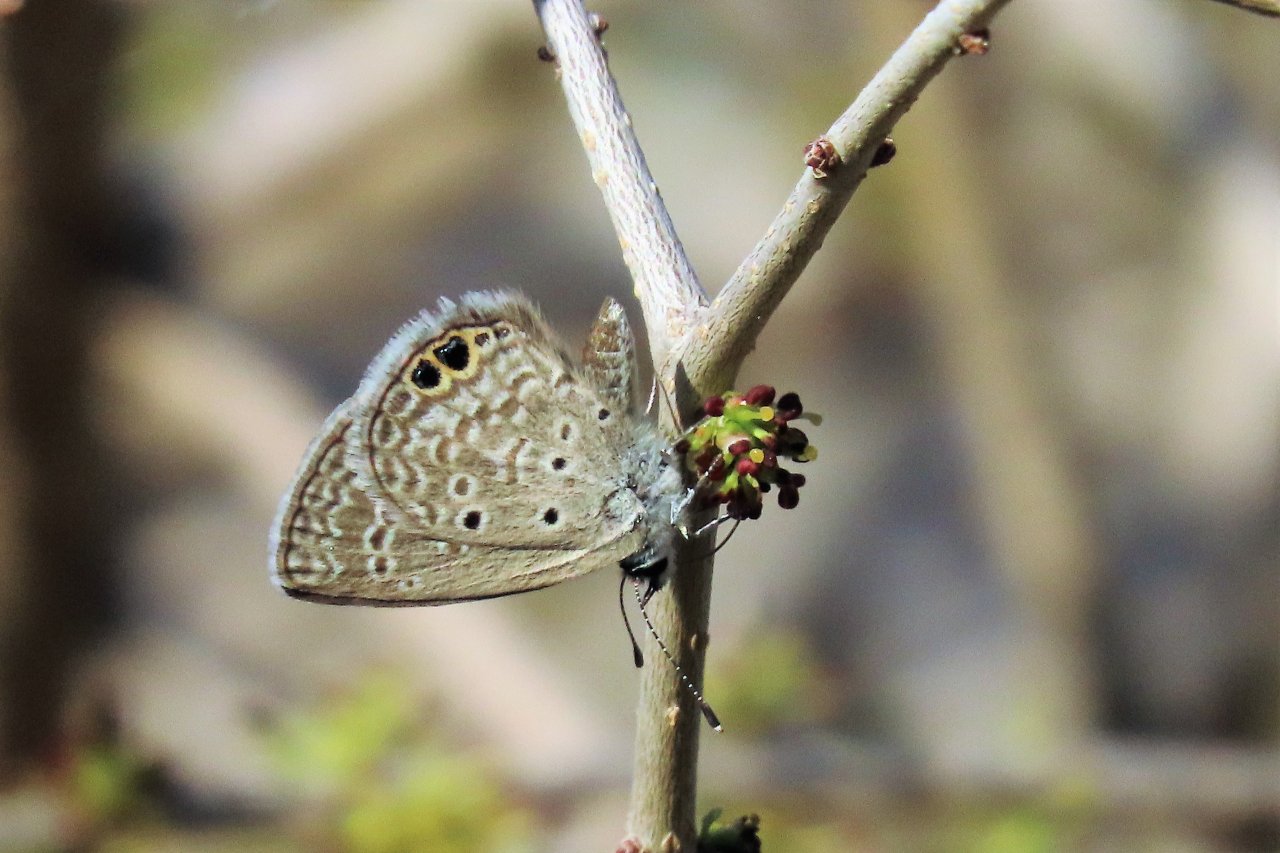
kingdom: Animalia
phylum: Arthropoda
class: Insecta
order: Lepidoptera
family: Lycaenidae
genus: Hemiargus
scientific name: Hemiargus ceraunus
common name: Ceraunus Blue
